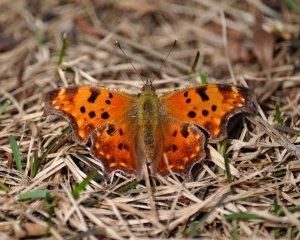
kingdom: Animalia
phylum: Arthropoda
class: Insecta
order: Lepidoptera
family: Nymphalidae
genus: Polygonia
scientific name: Polygonia comma
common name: Eastern Comma
